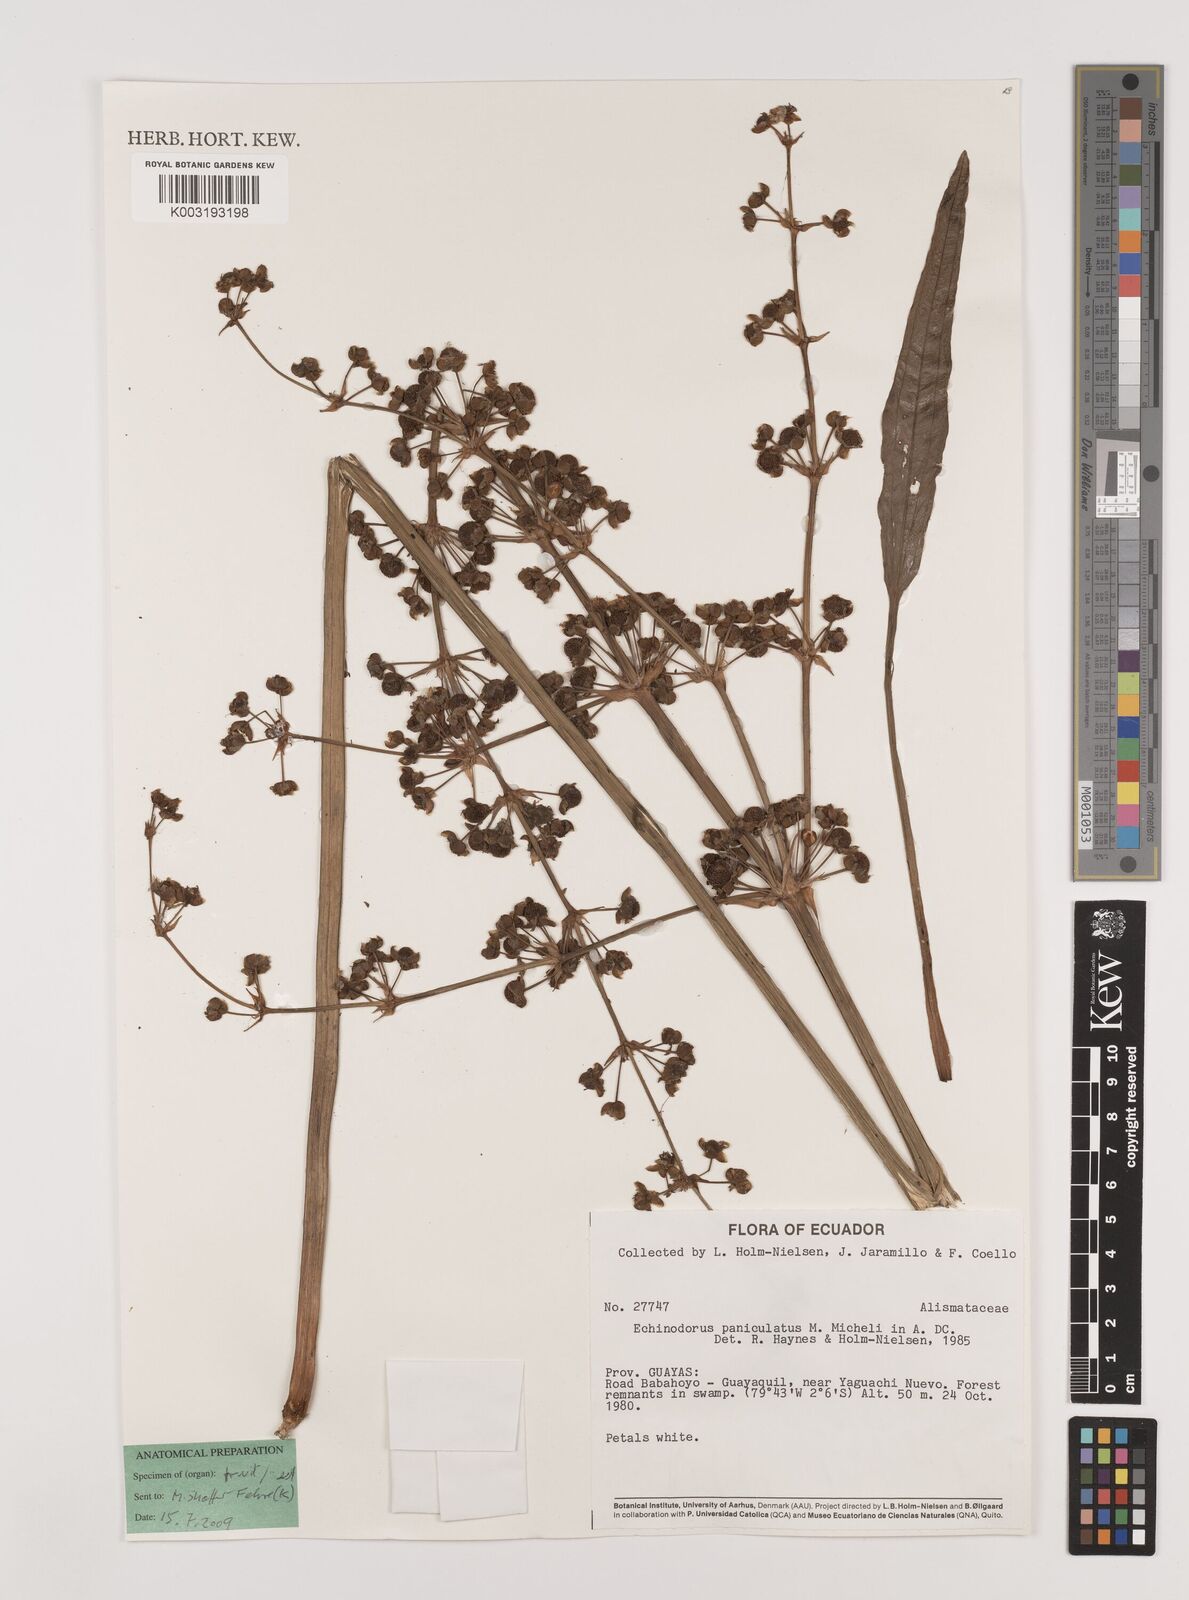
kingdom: Plantae
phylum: Tracheophyta
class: Liliopsida
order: Alismatales
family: Alismataceae
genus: Aquarius
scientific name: Aquarius paniculatus
